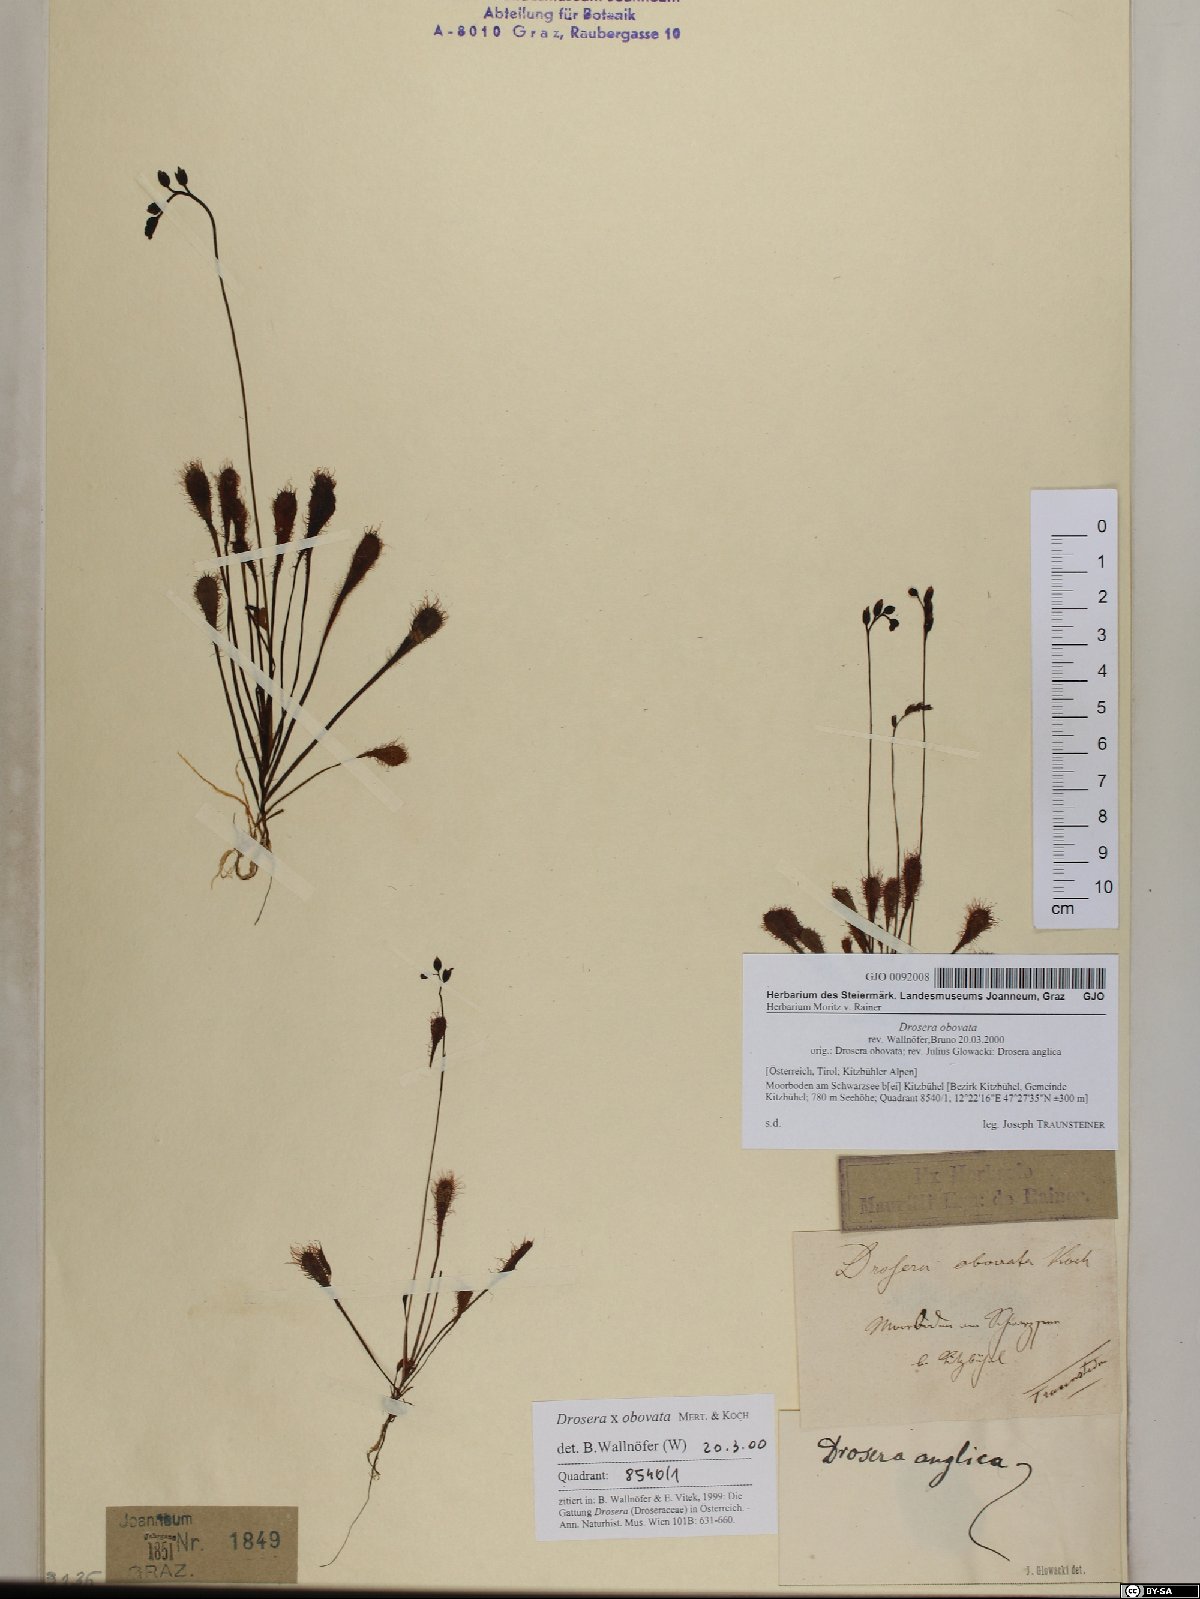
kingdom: Plantae
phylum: Tracheophyta
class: Magnoliopsida
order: Caryophyllales
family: Droseraceae
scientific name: Droseraceae
